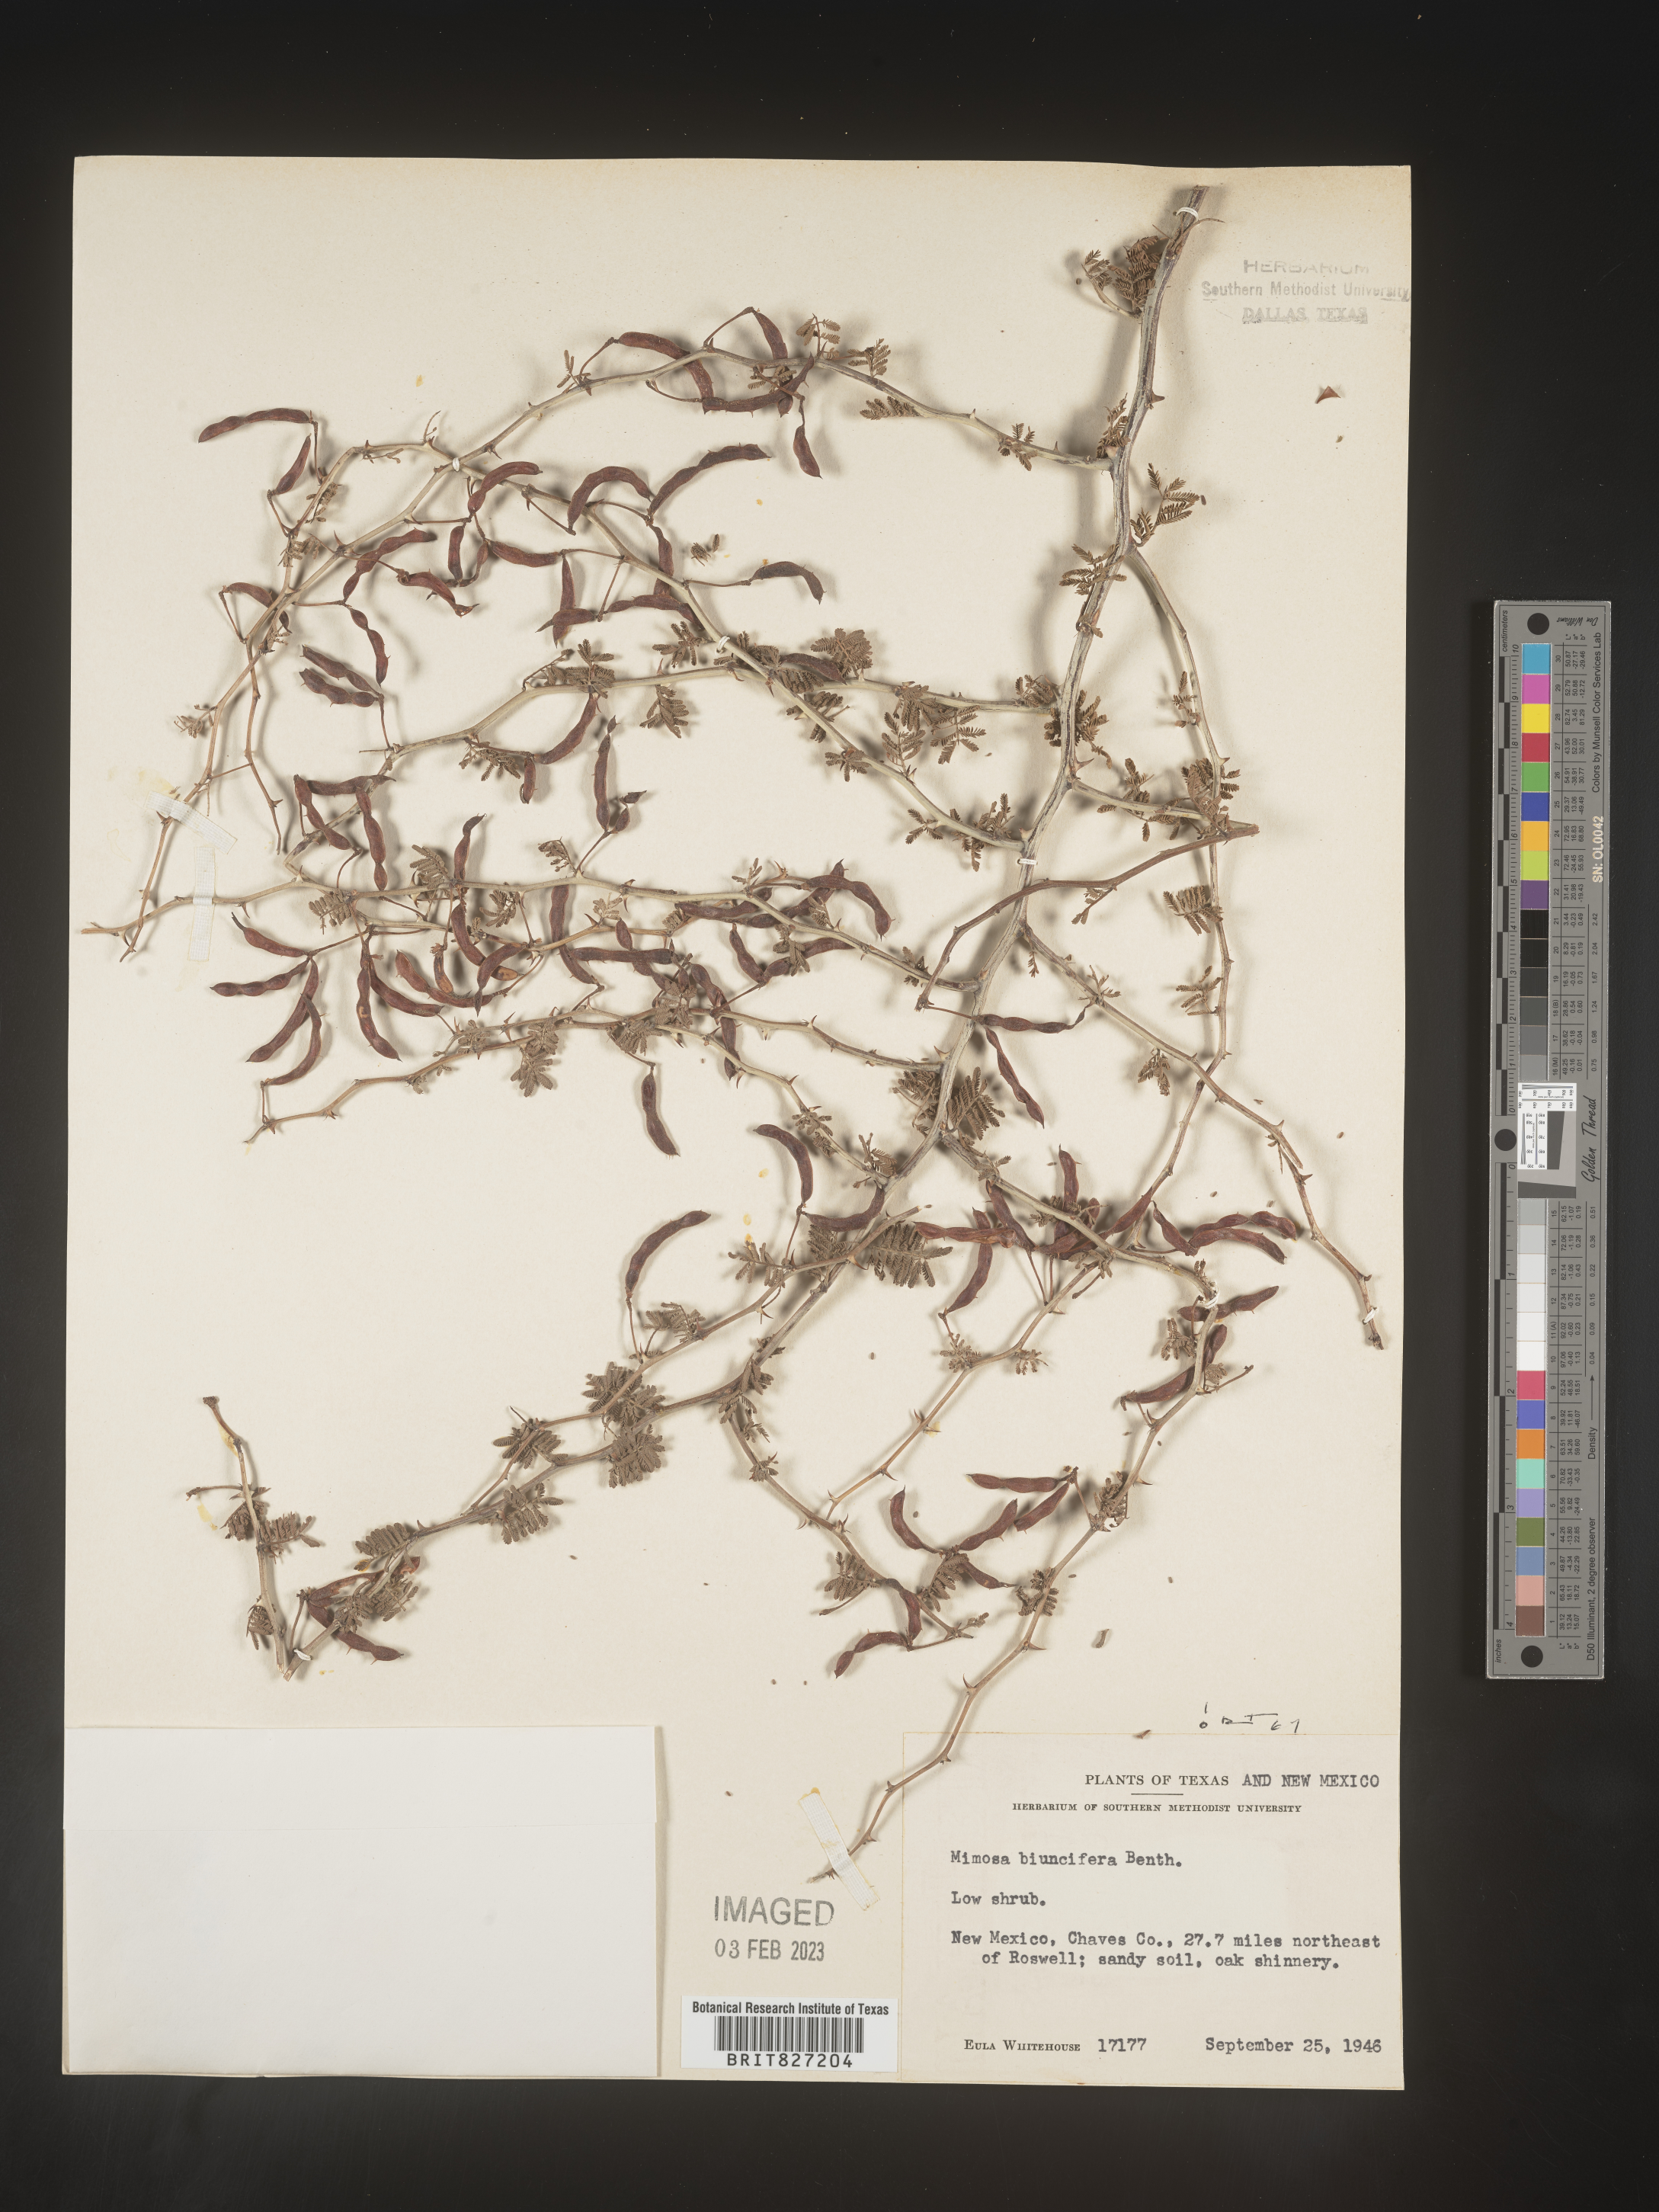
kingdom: Plantae
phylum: Tracheophyta
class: Magnoliopsida
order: Fabales
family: Fabaceae
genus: Mimosa
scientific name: Mimosa aculeaticarpa
